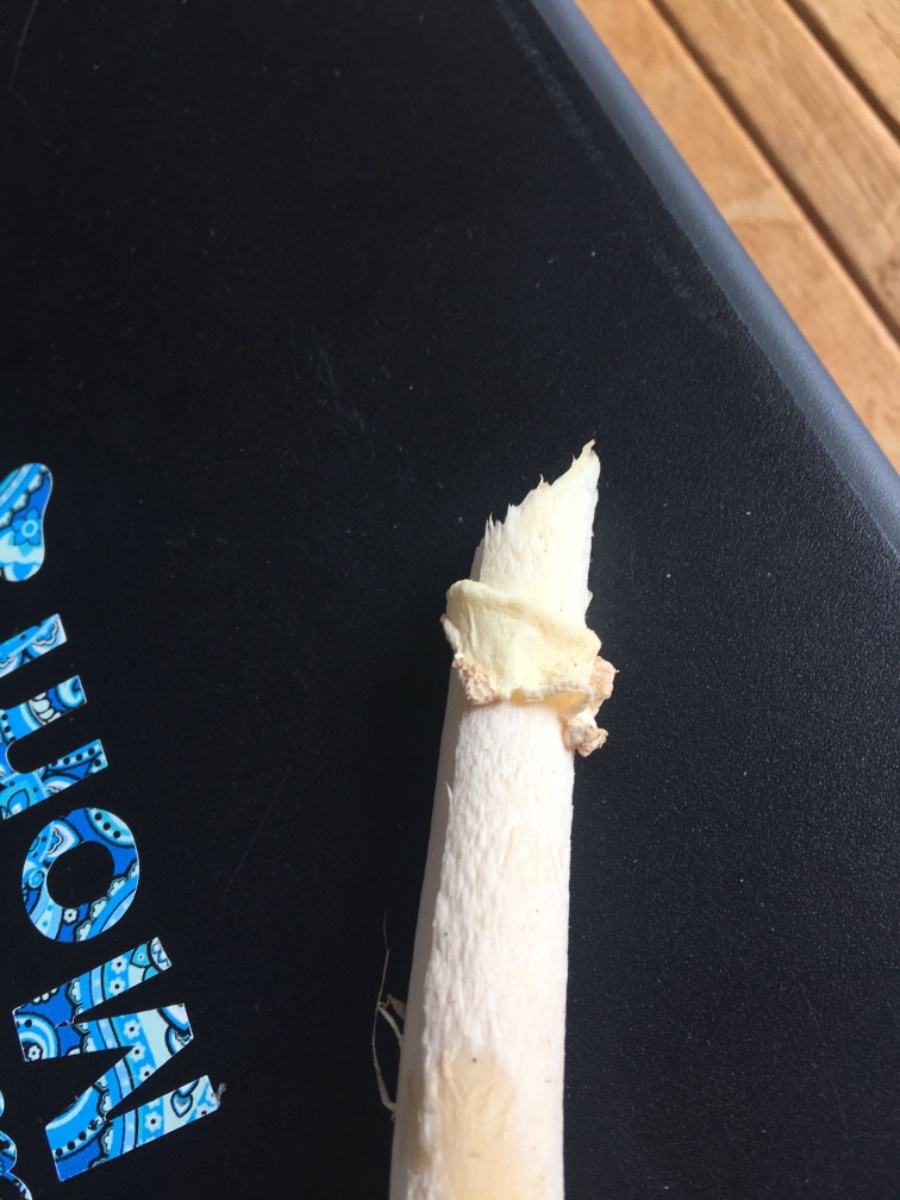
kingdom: Fungi
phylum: Basidiomycota
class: Agaricomycetes
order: Agaricales
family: Amanitaceae
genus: Amanita
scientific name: Amanita muscaria
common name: rød fluesvamp
